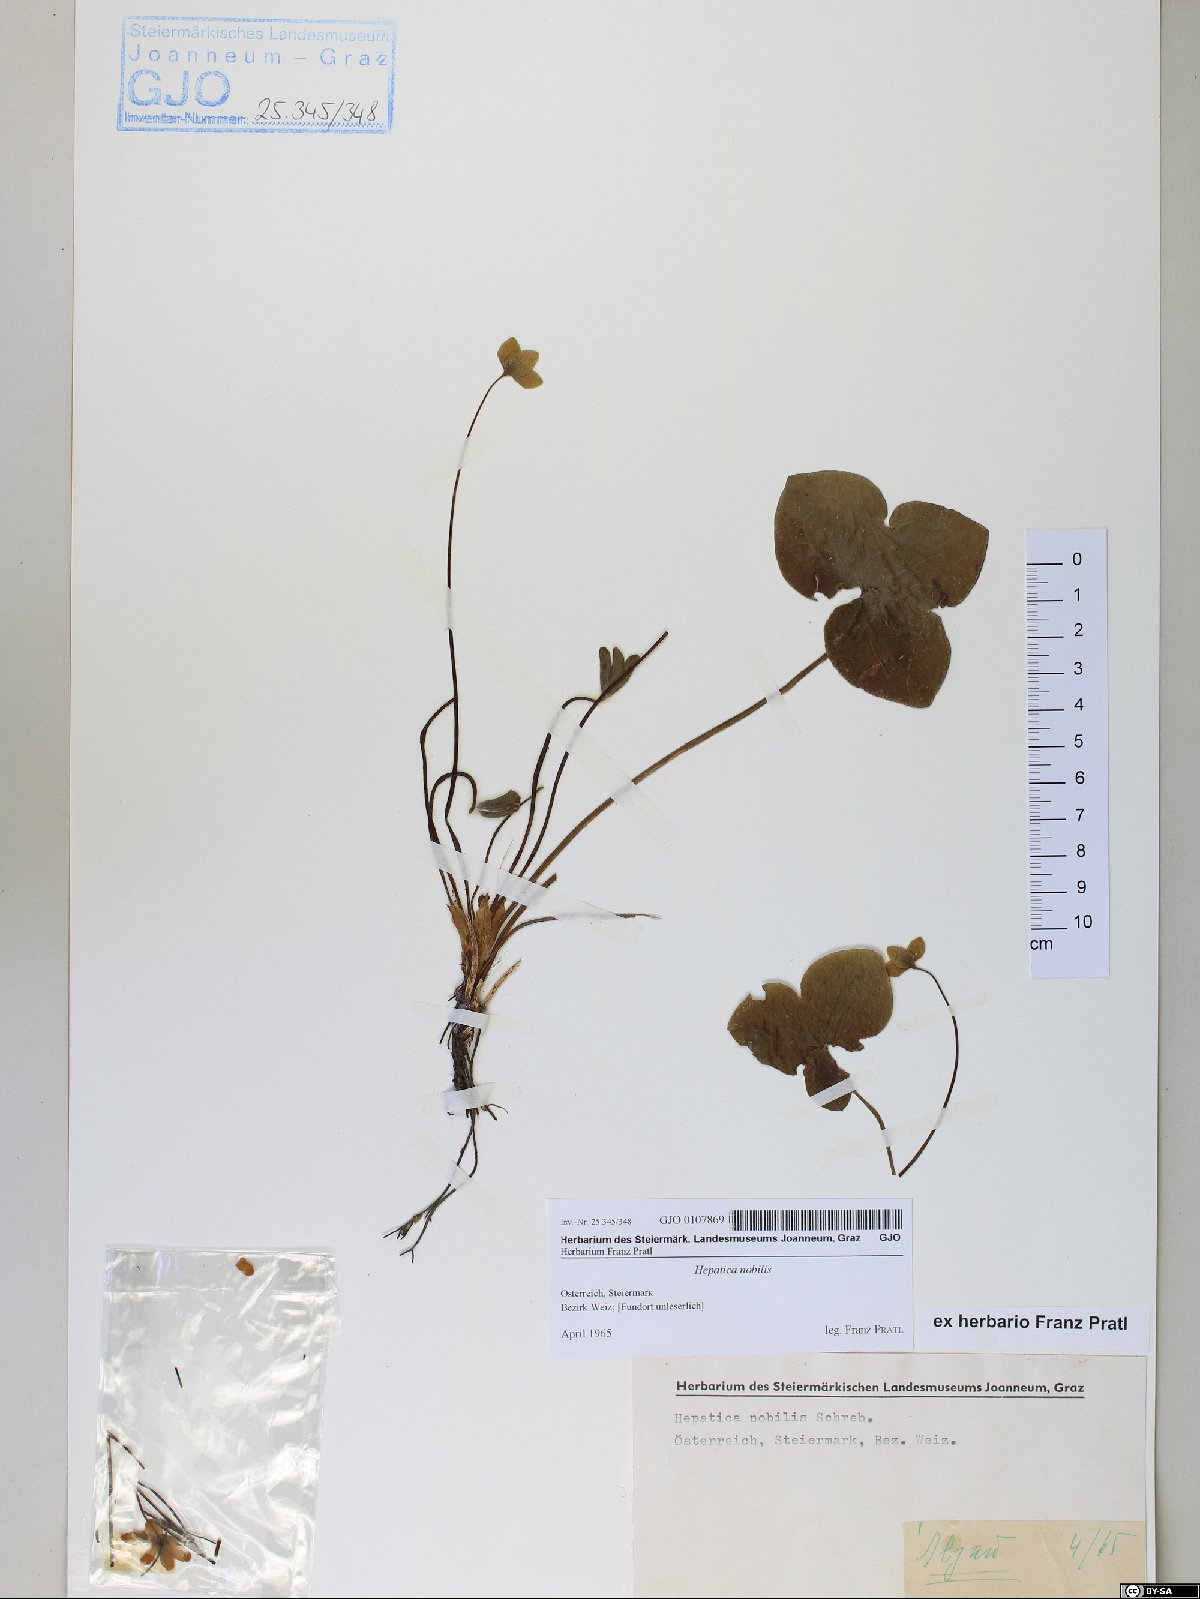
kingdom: Plantae
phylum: Tracheophyta
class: Magnoliopsida
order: Ranunculales
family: Ranunculaceae
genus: Hepatica
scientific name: Hepatica nobilis
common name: Liverleaf
